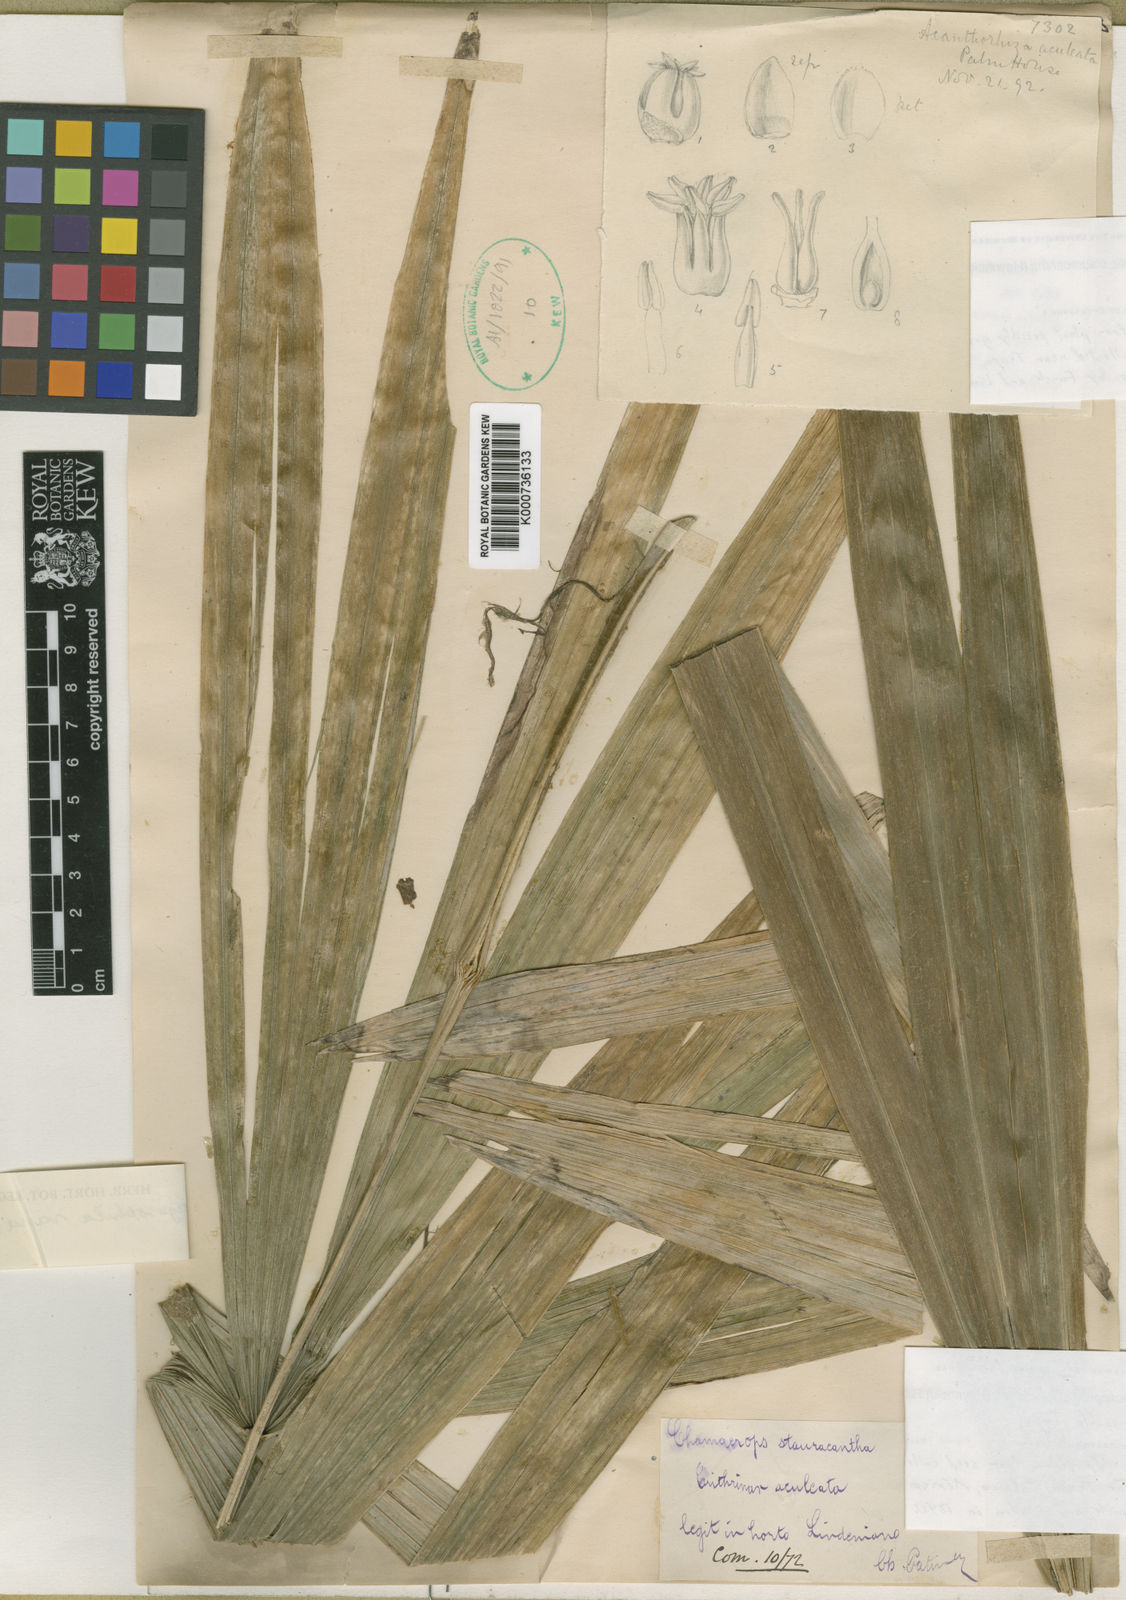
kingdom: Plantae
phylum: Tracheophyta
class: Liliopsida
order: Arecales
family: Arecaceae
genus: Cryosophila
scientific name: Cryosophila stauracantha
